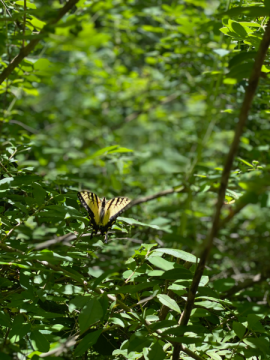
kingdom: Animalia
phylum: Arthropoda
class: Insecta
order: Lepidoptera
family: Papilionidae
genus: Pterourus
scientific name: Pterourus
